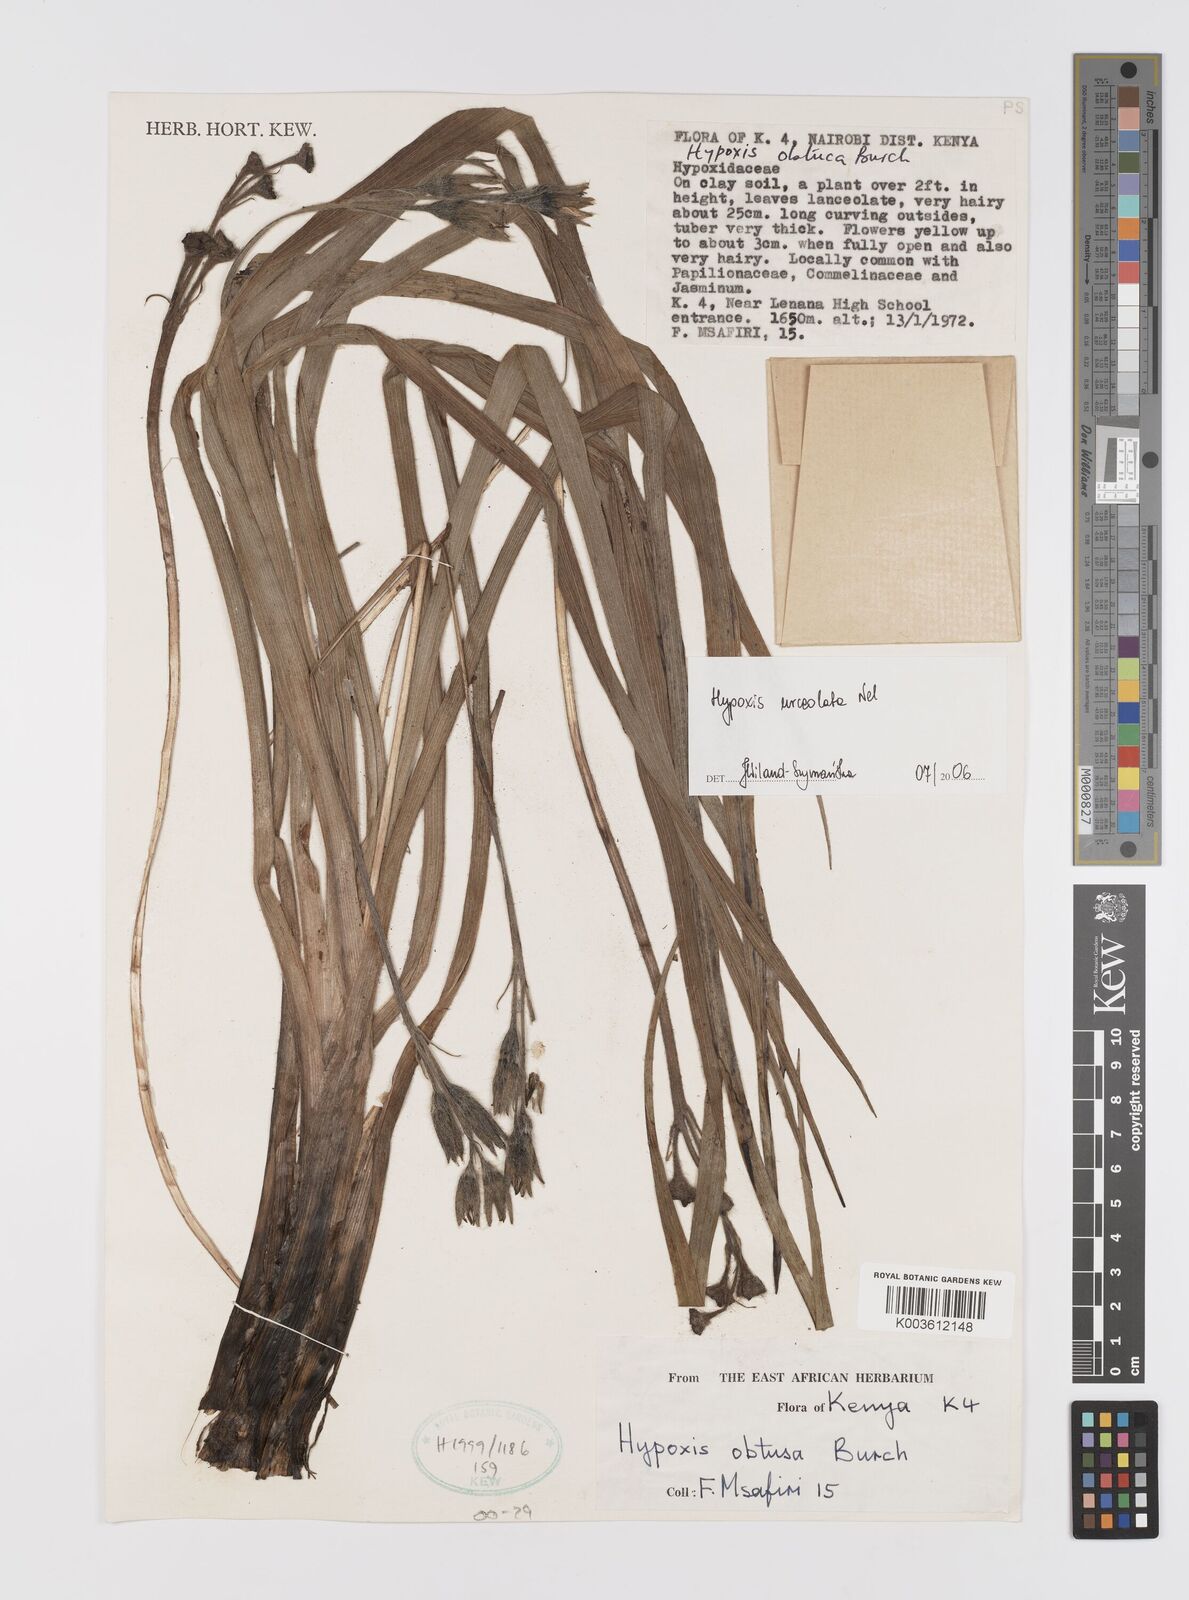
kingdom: Plantae
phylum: Tracheophyta
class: Liliopsida
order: Asparagales
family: Hypoxidaceae
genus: Hypoxis
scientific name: Hypoxis urceolata
